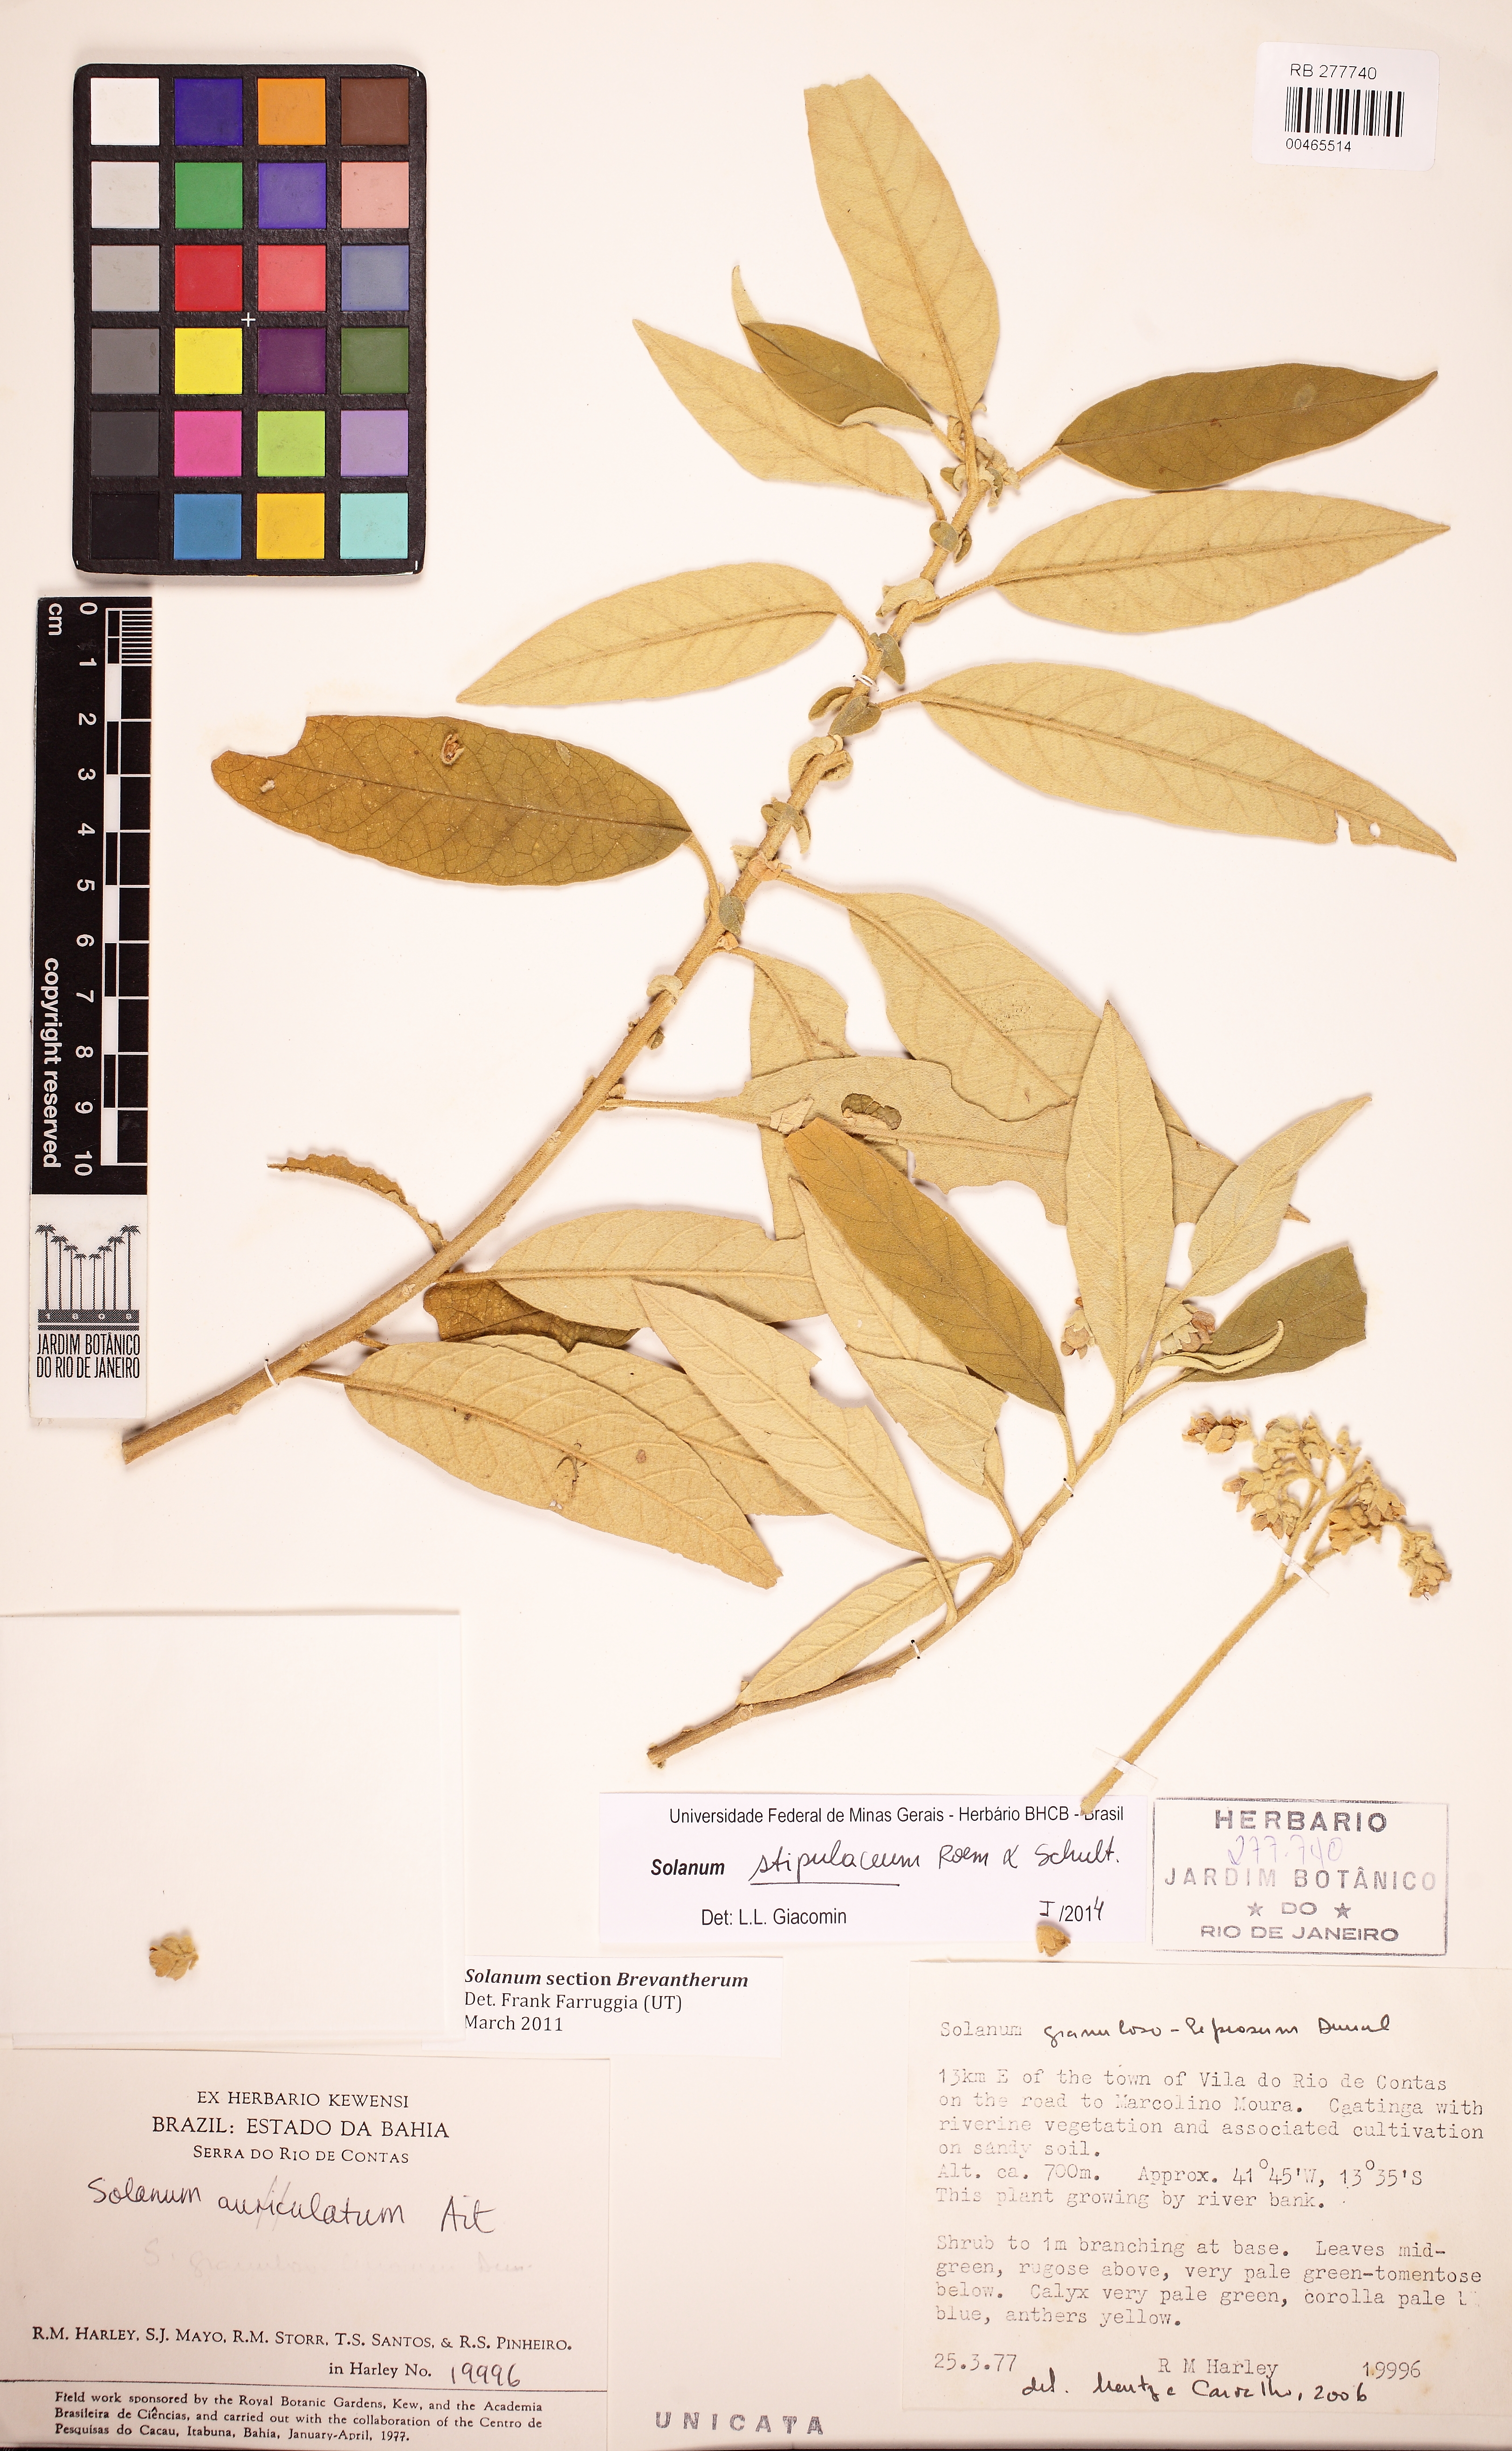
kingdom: Plantae
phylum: Tracheophyta
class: Magnoliopsida
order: Solanales
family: Solanaceae
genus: Solanum
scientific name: Solanum stipulaceum
